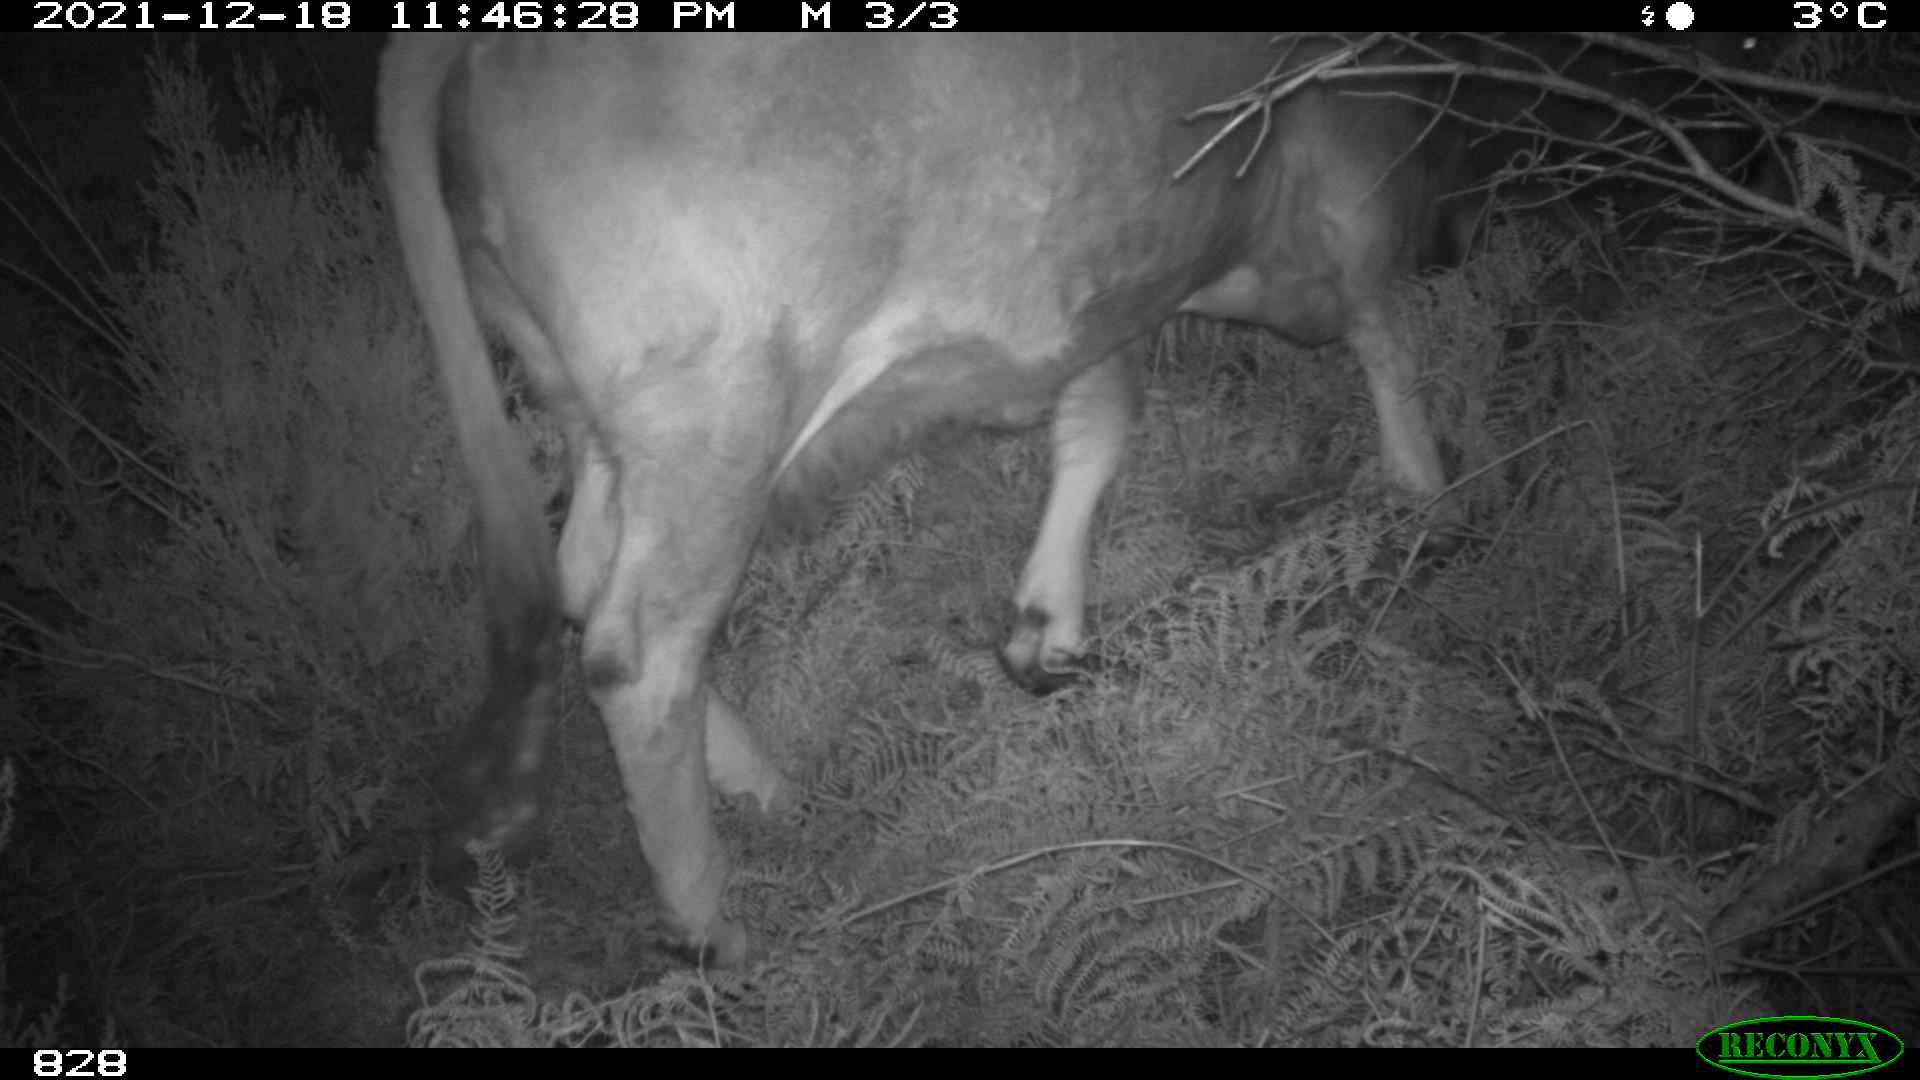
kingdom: Animalia
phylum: Chordata
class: Mammalia
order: Artiodactyla
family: Bovidae
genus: Bos
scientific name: Bos taurus
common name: Domesticated cattle
